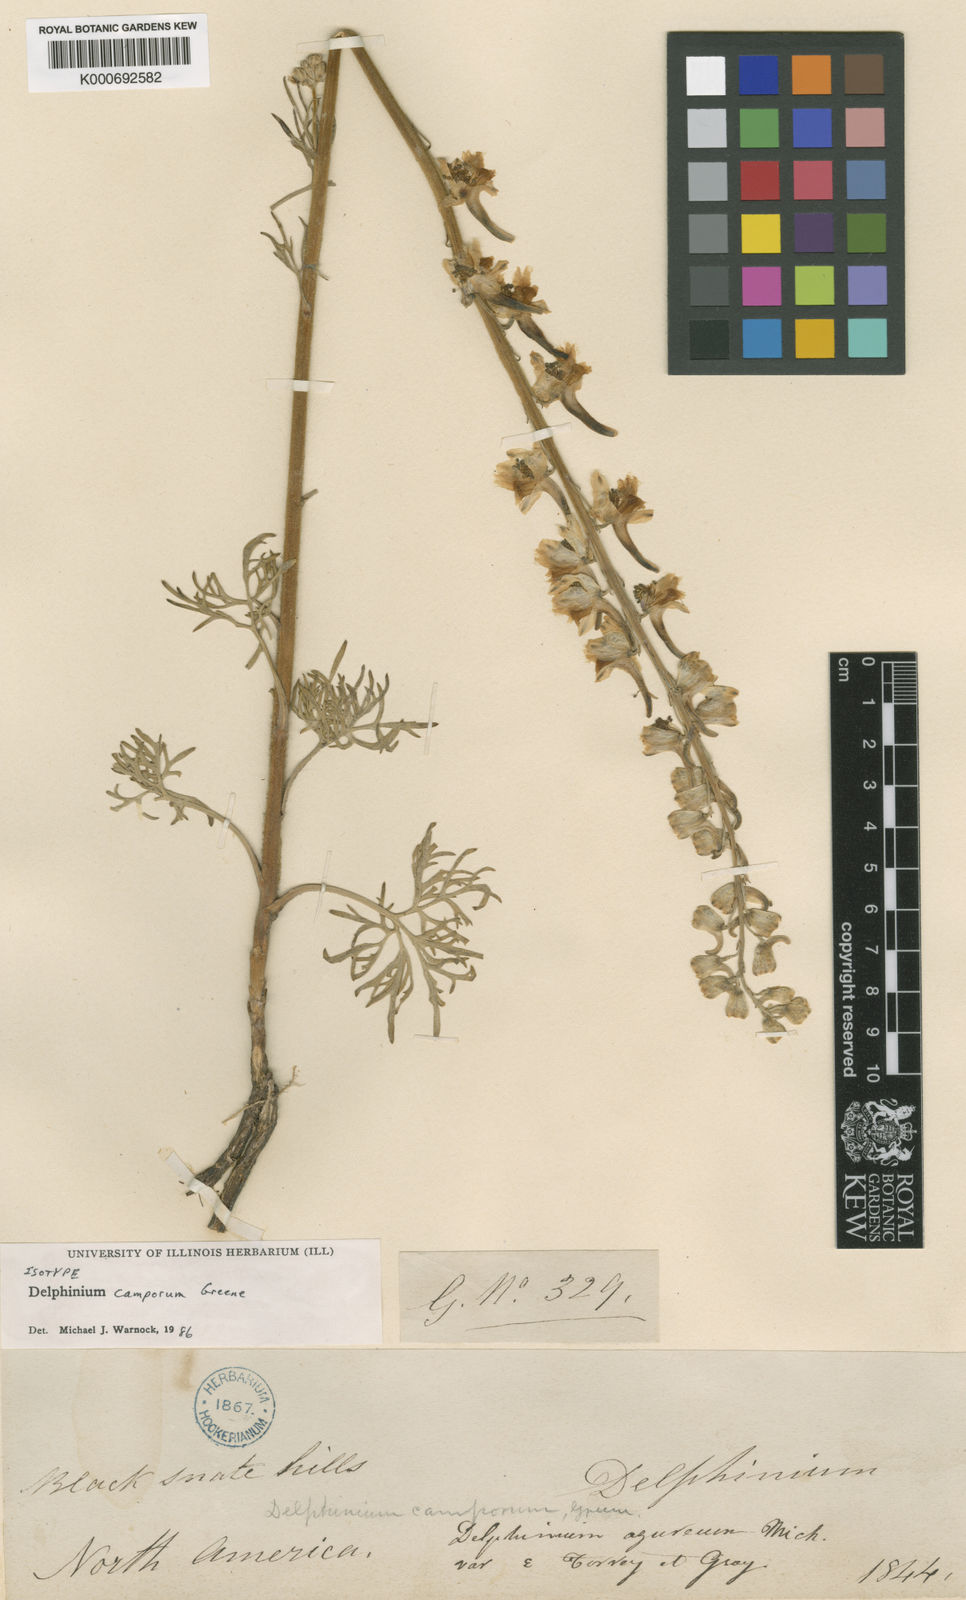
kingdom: Plantae
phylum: Tracheophyta
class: Magnoliopsida
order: Ranunculales
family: Ranunculaceae
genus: Delphinium
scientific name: Delphinium carolinianum
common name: Carolina larkspur
